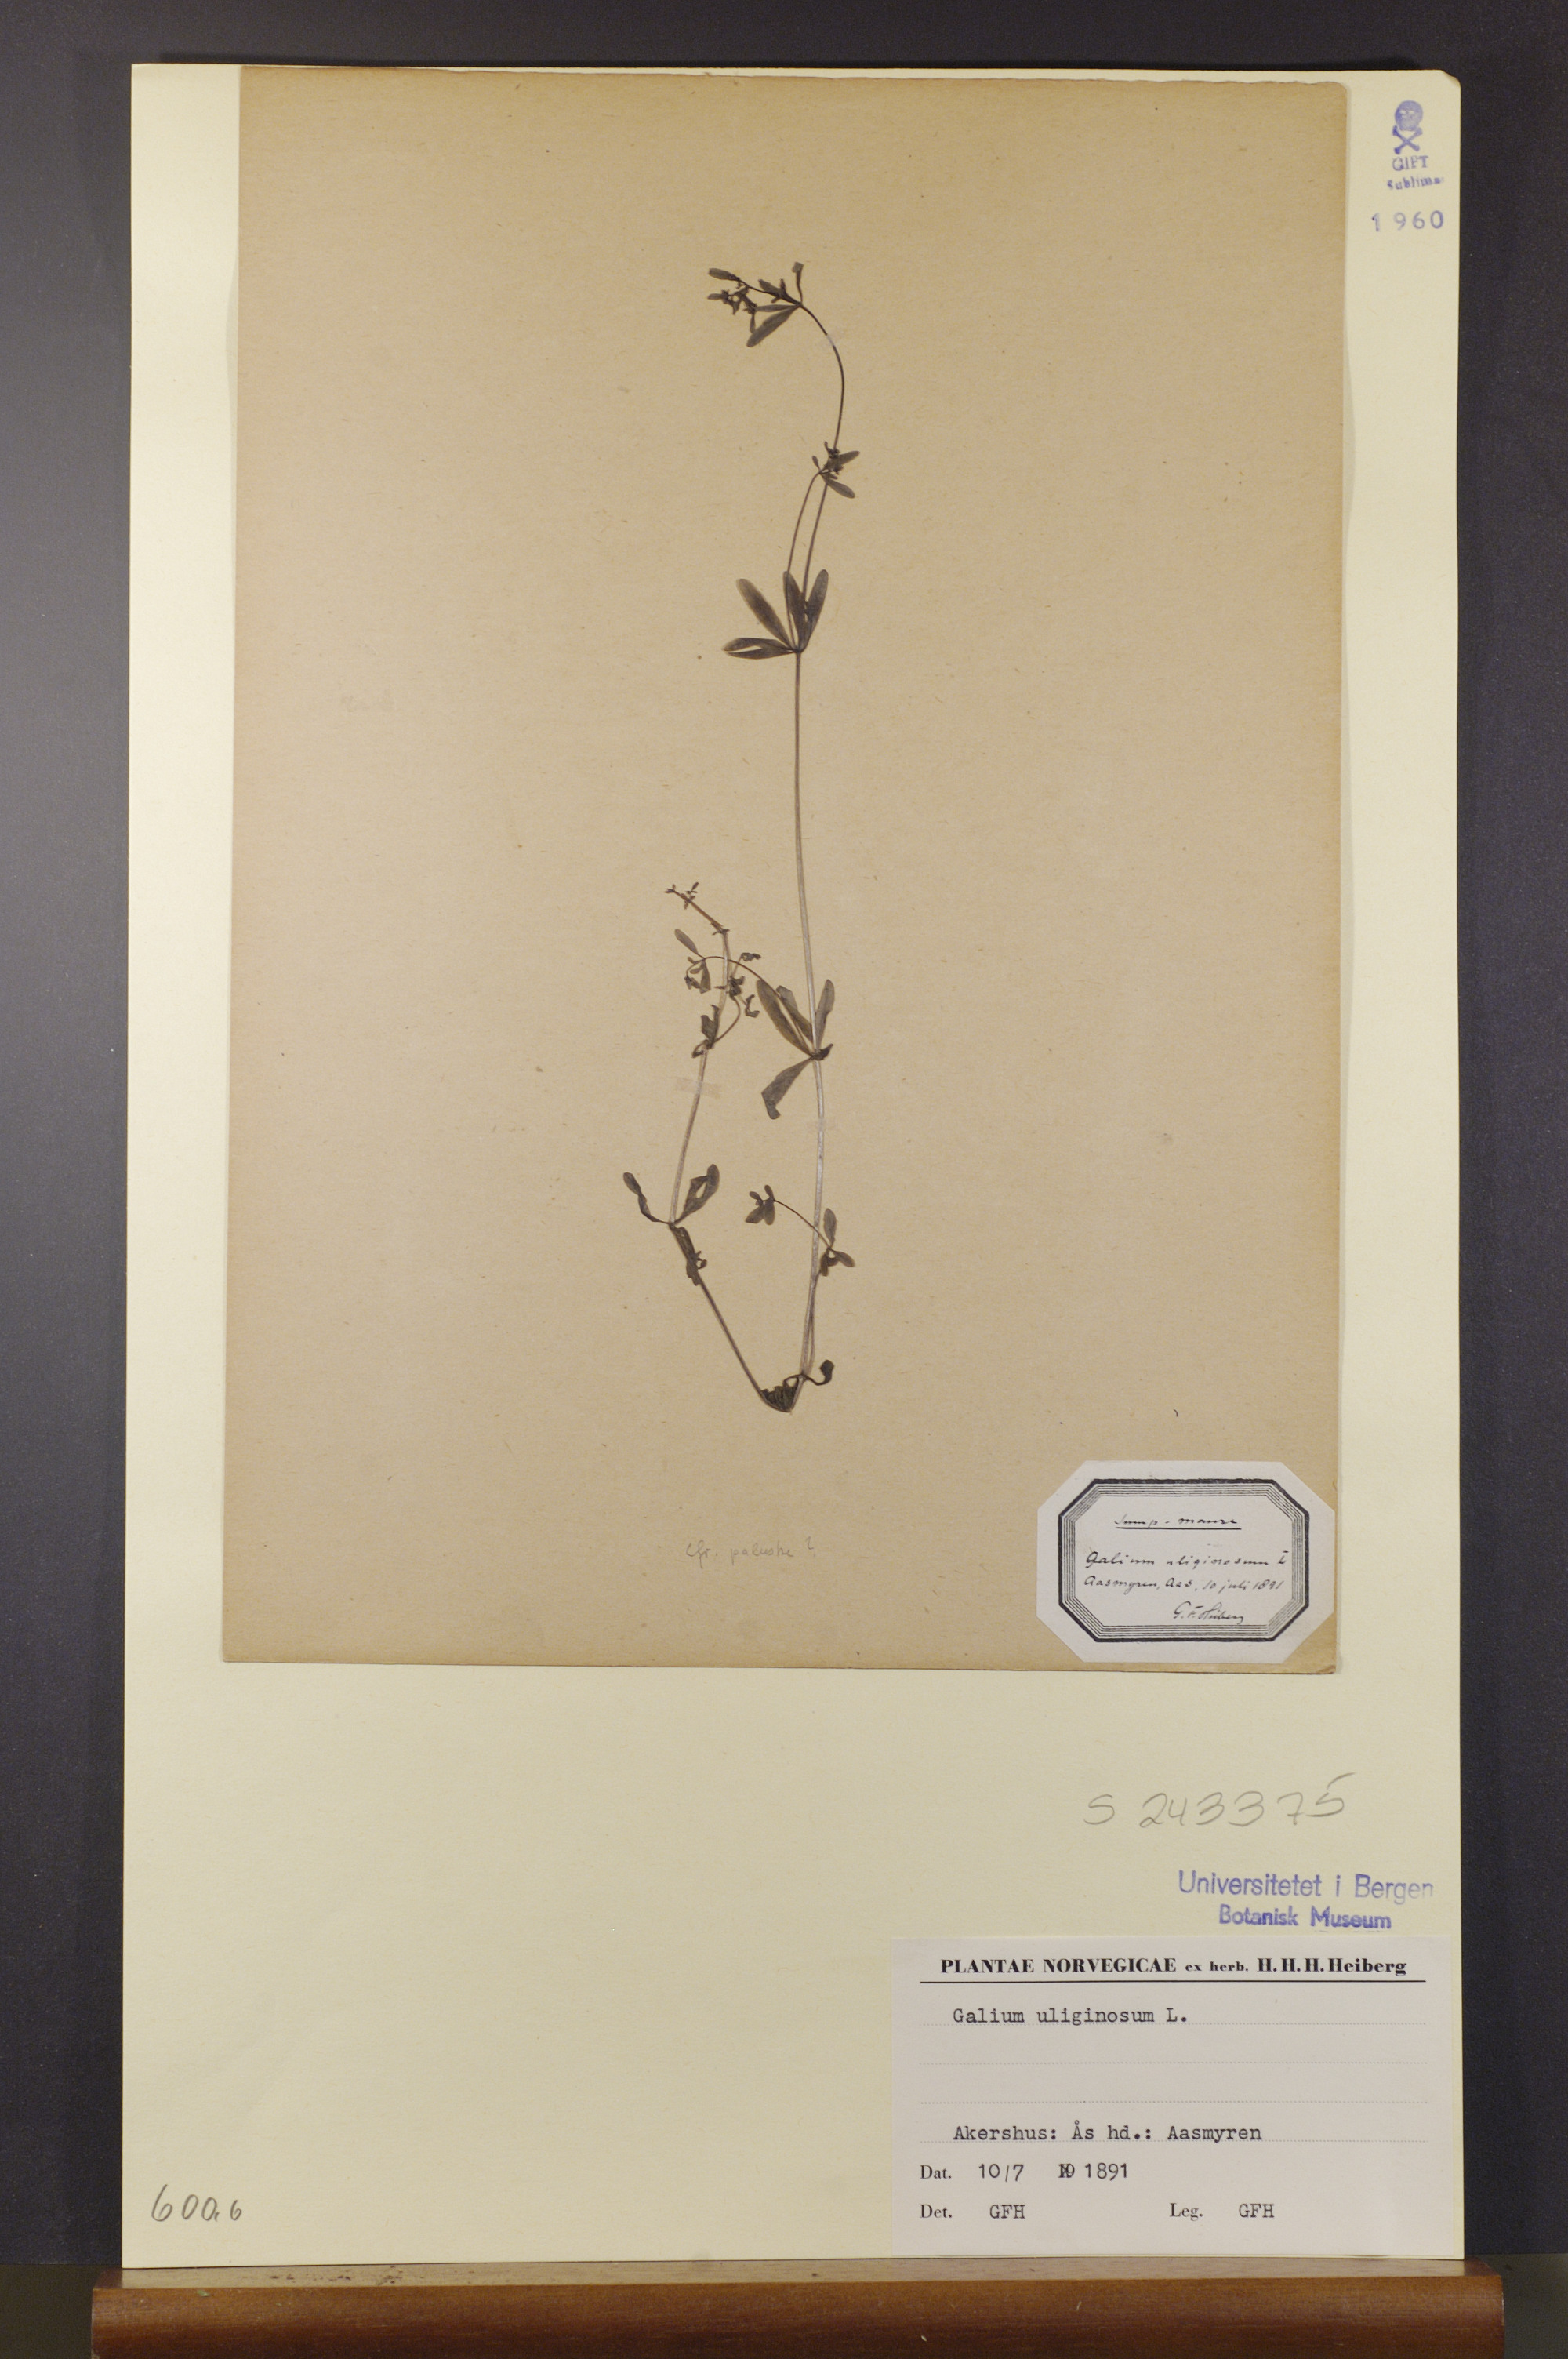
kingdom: Plantae
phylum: Tracheophyta
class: Magnoliopsida
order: Gentianales
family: Rubiaceae
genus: Galium
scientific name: Galium uliginosum
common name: Fen bedstraw
